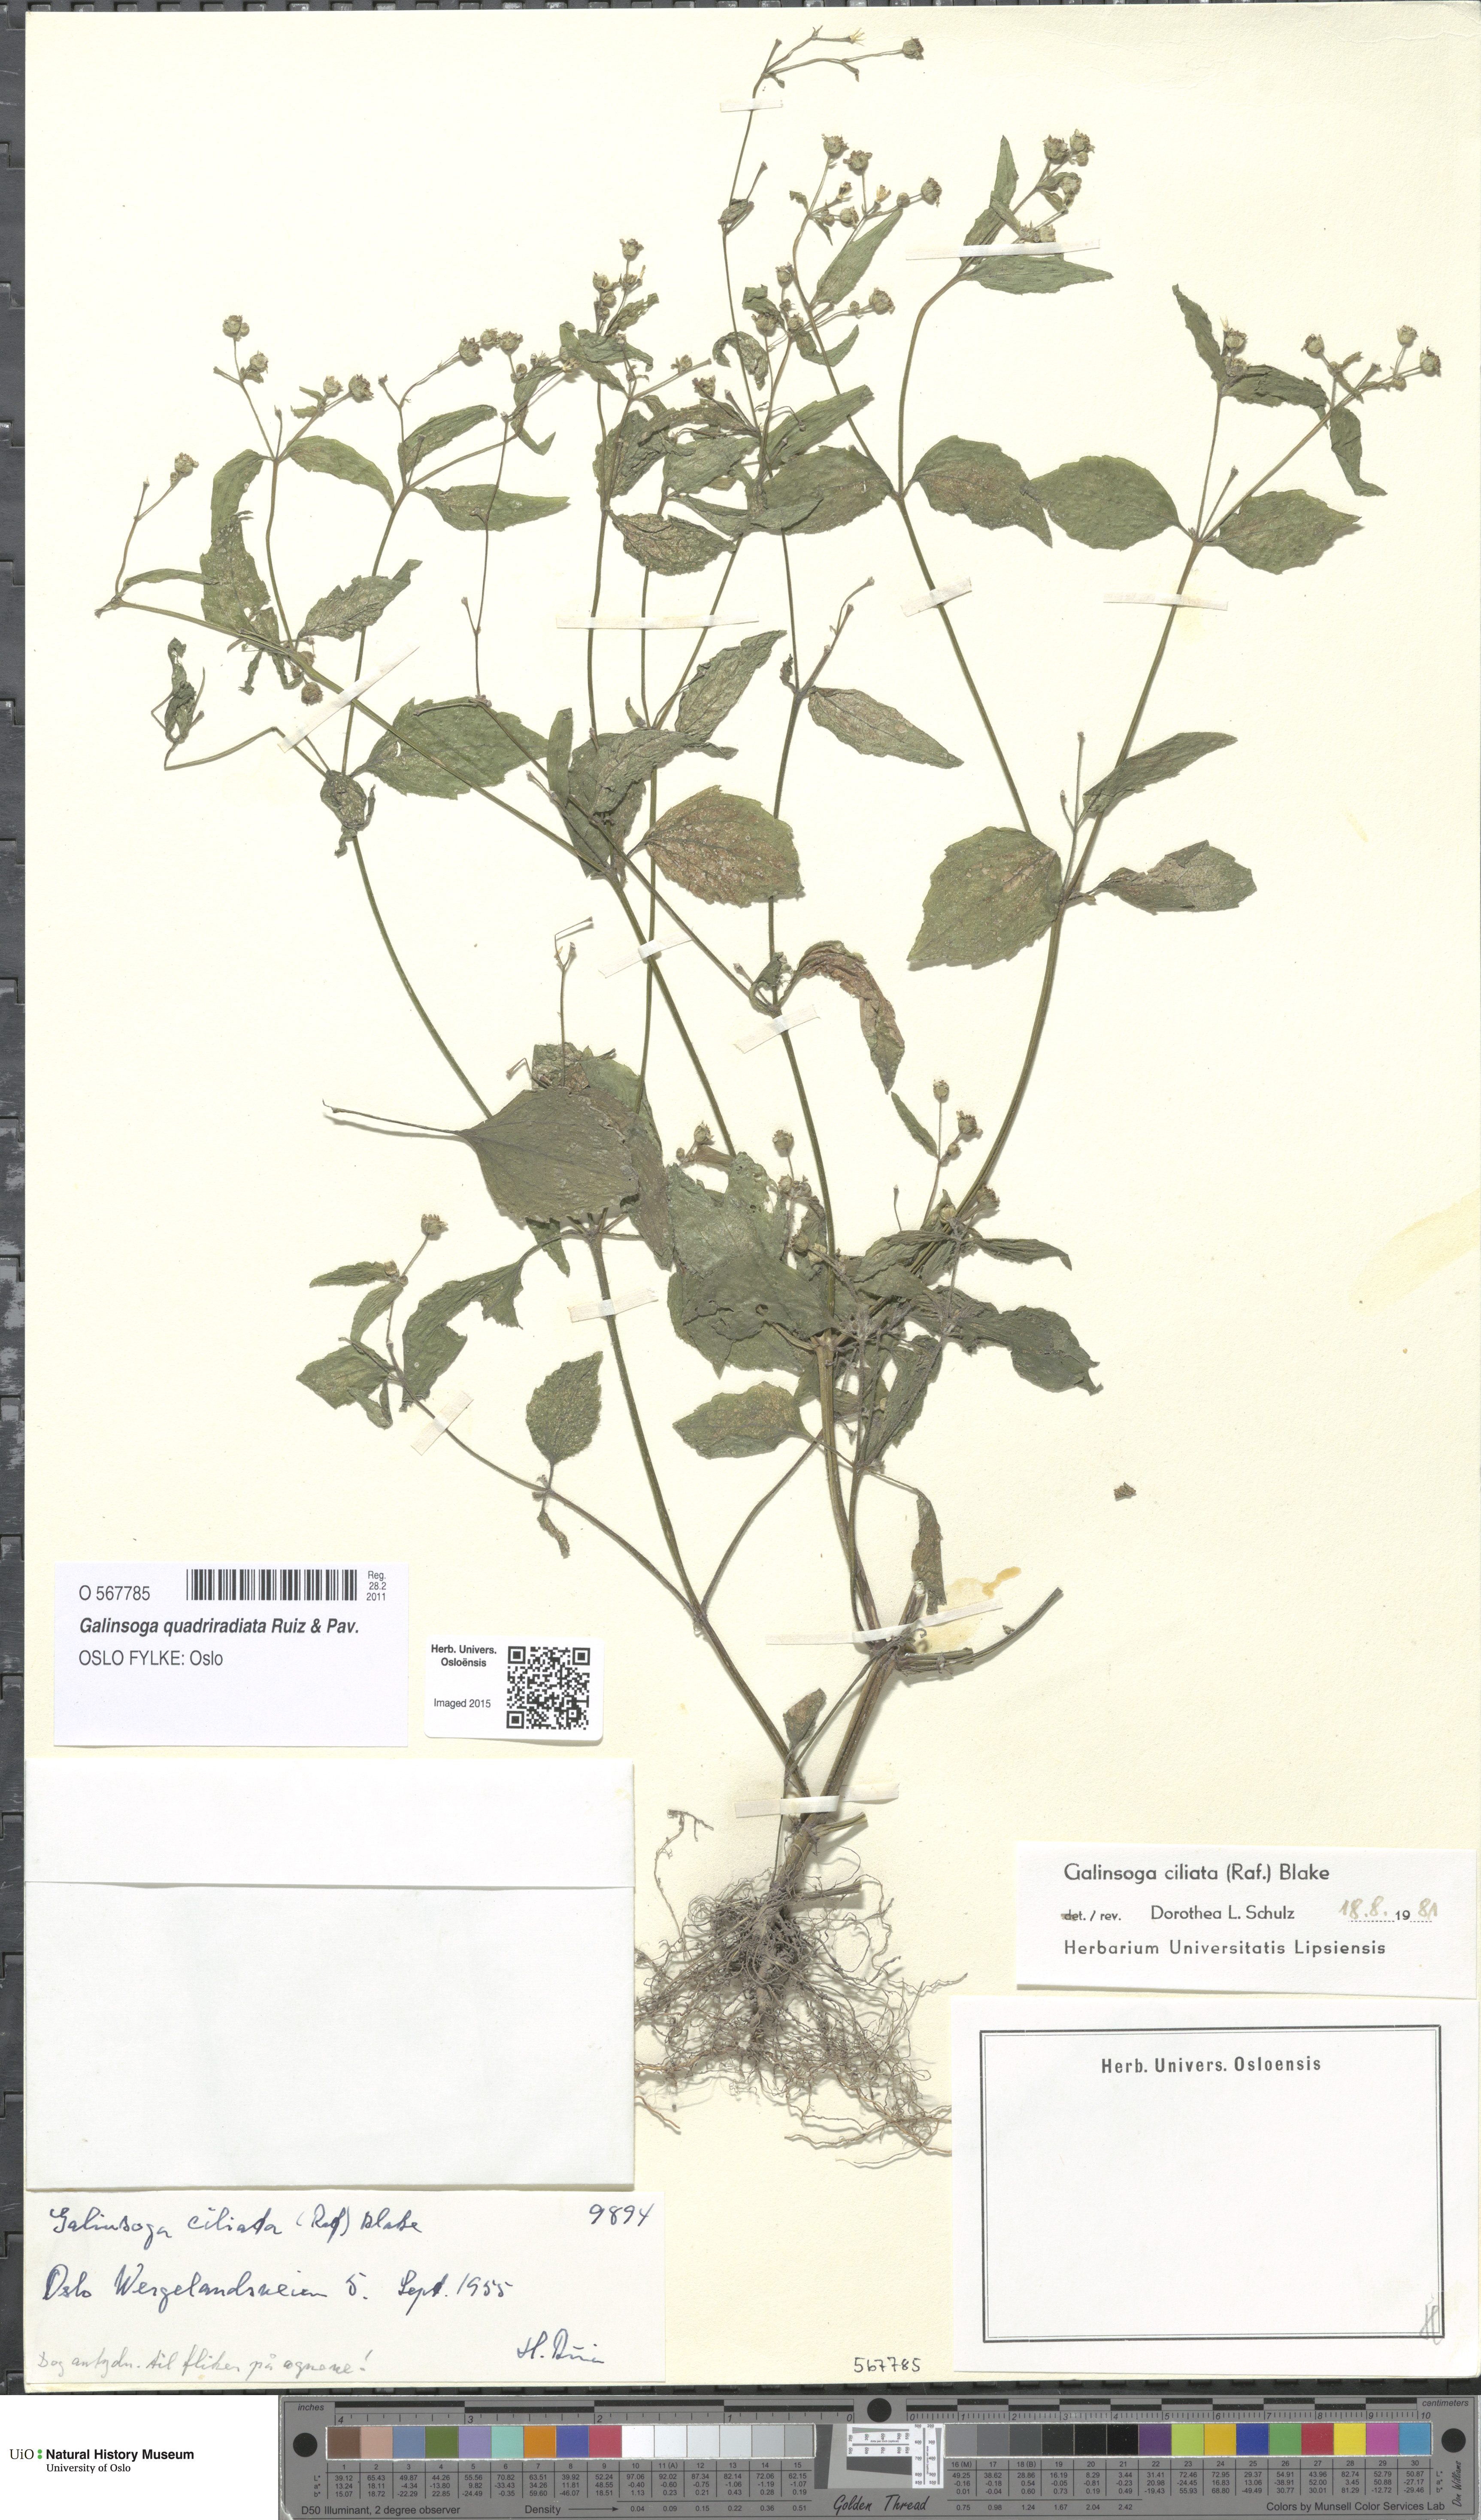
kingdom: Plantae
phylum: Tracheophyta
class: Magnoliopsida
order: Asterales
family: Asteraceae
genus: Galinsoga
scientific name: Galinsoga quadriradiata
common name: Shaggy soldier
